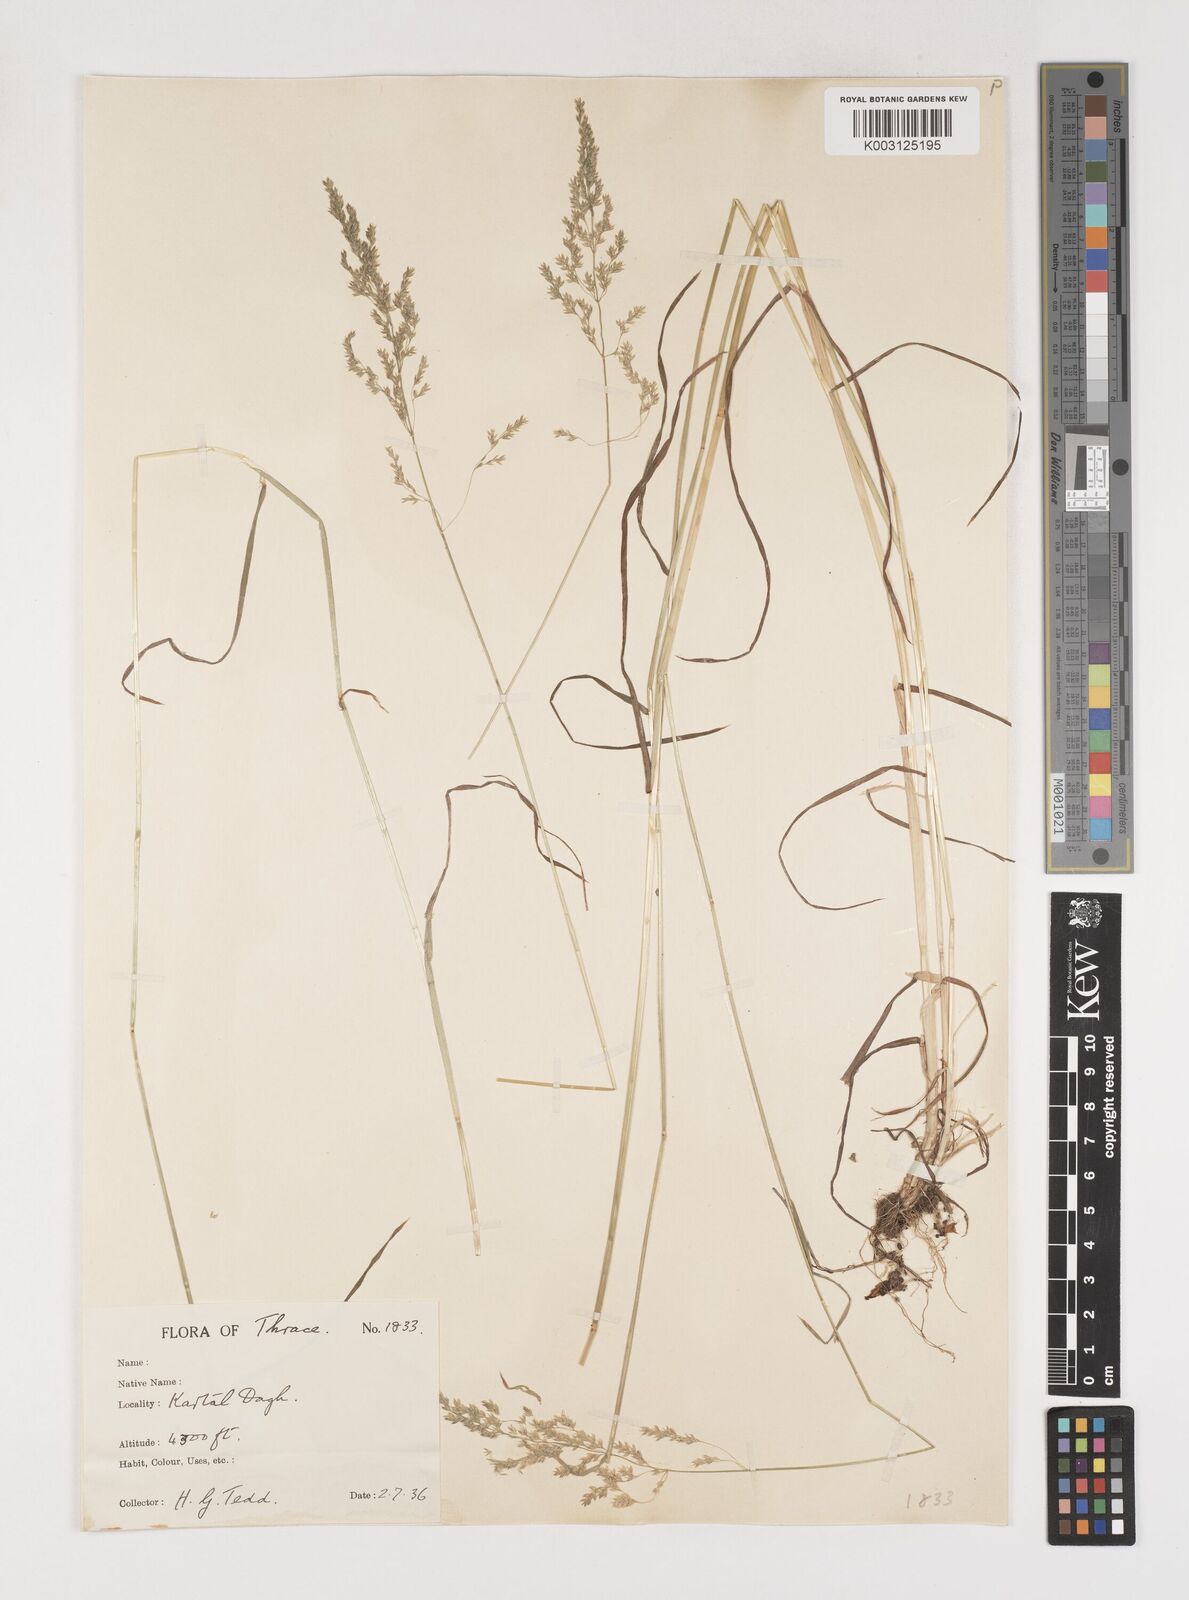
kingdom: Plantae
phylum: Tracheophyta
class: Liliopsida
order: Poales
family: Poaceae
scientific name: Poaceae
